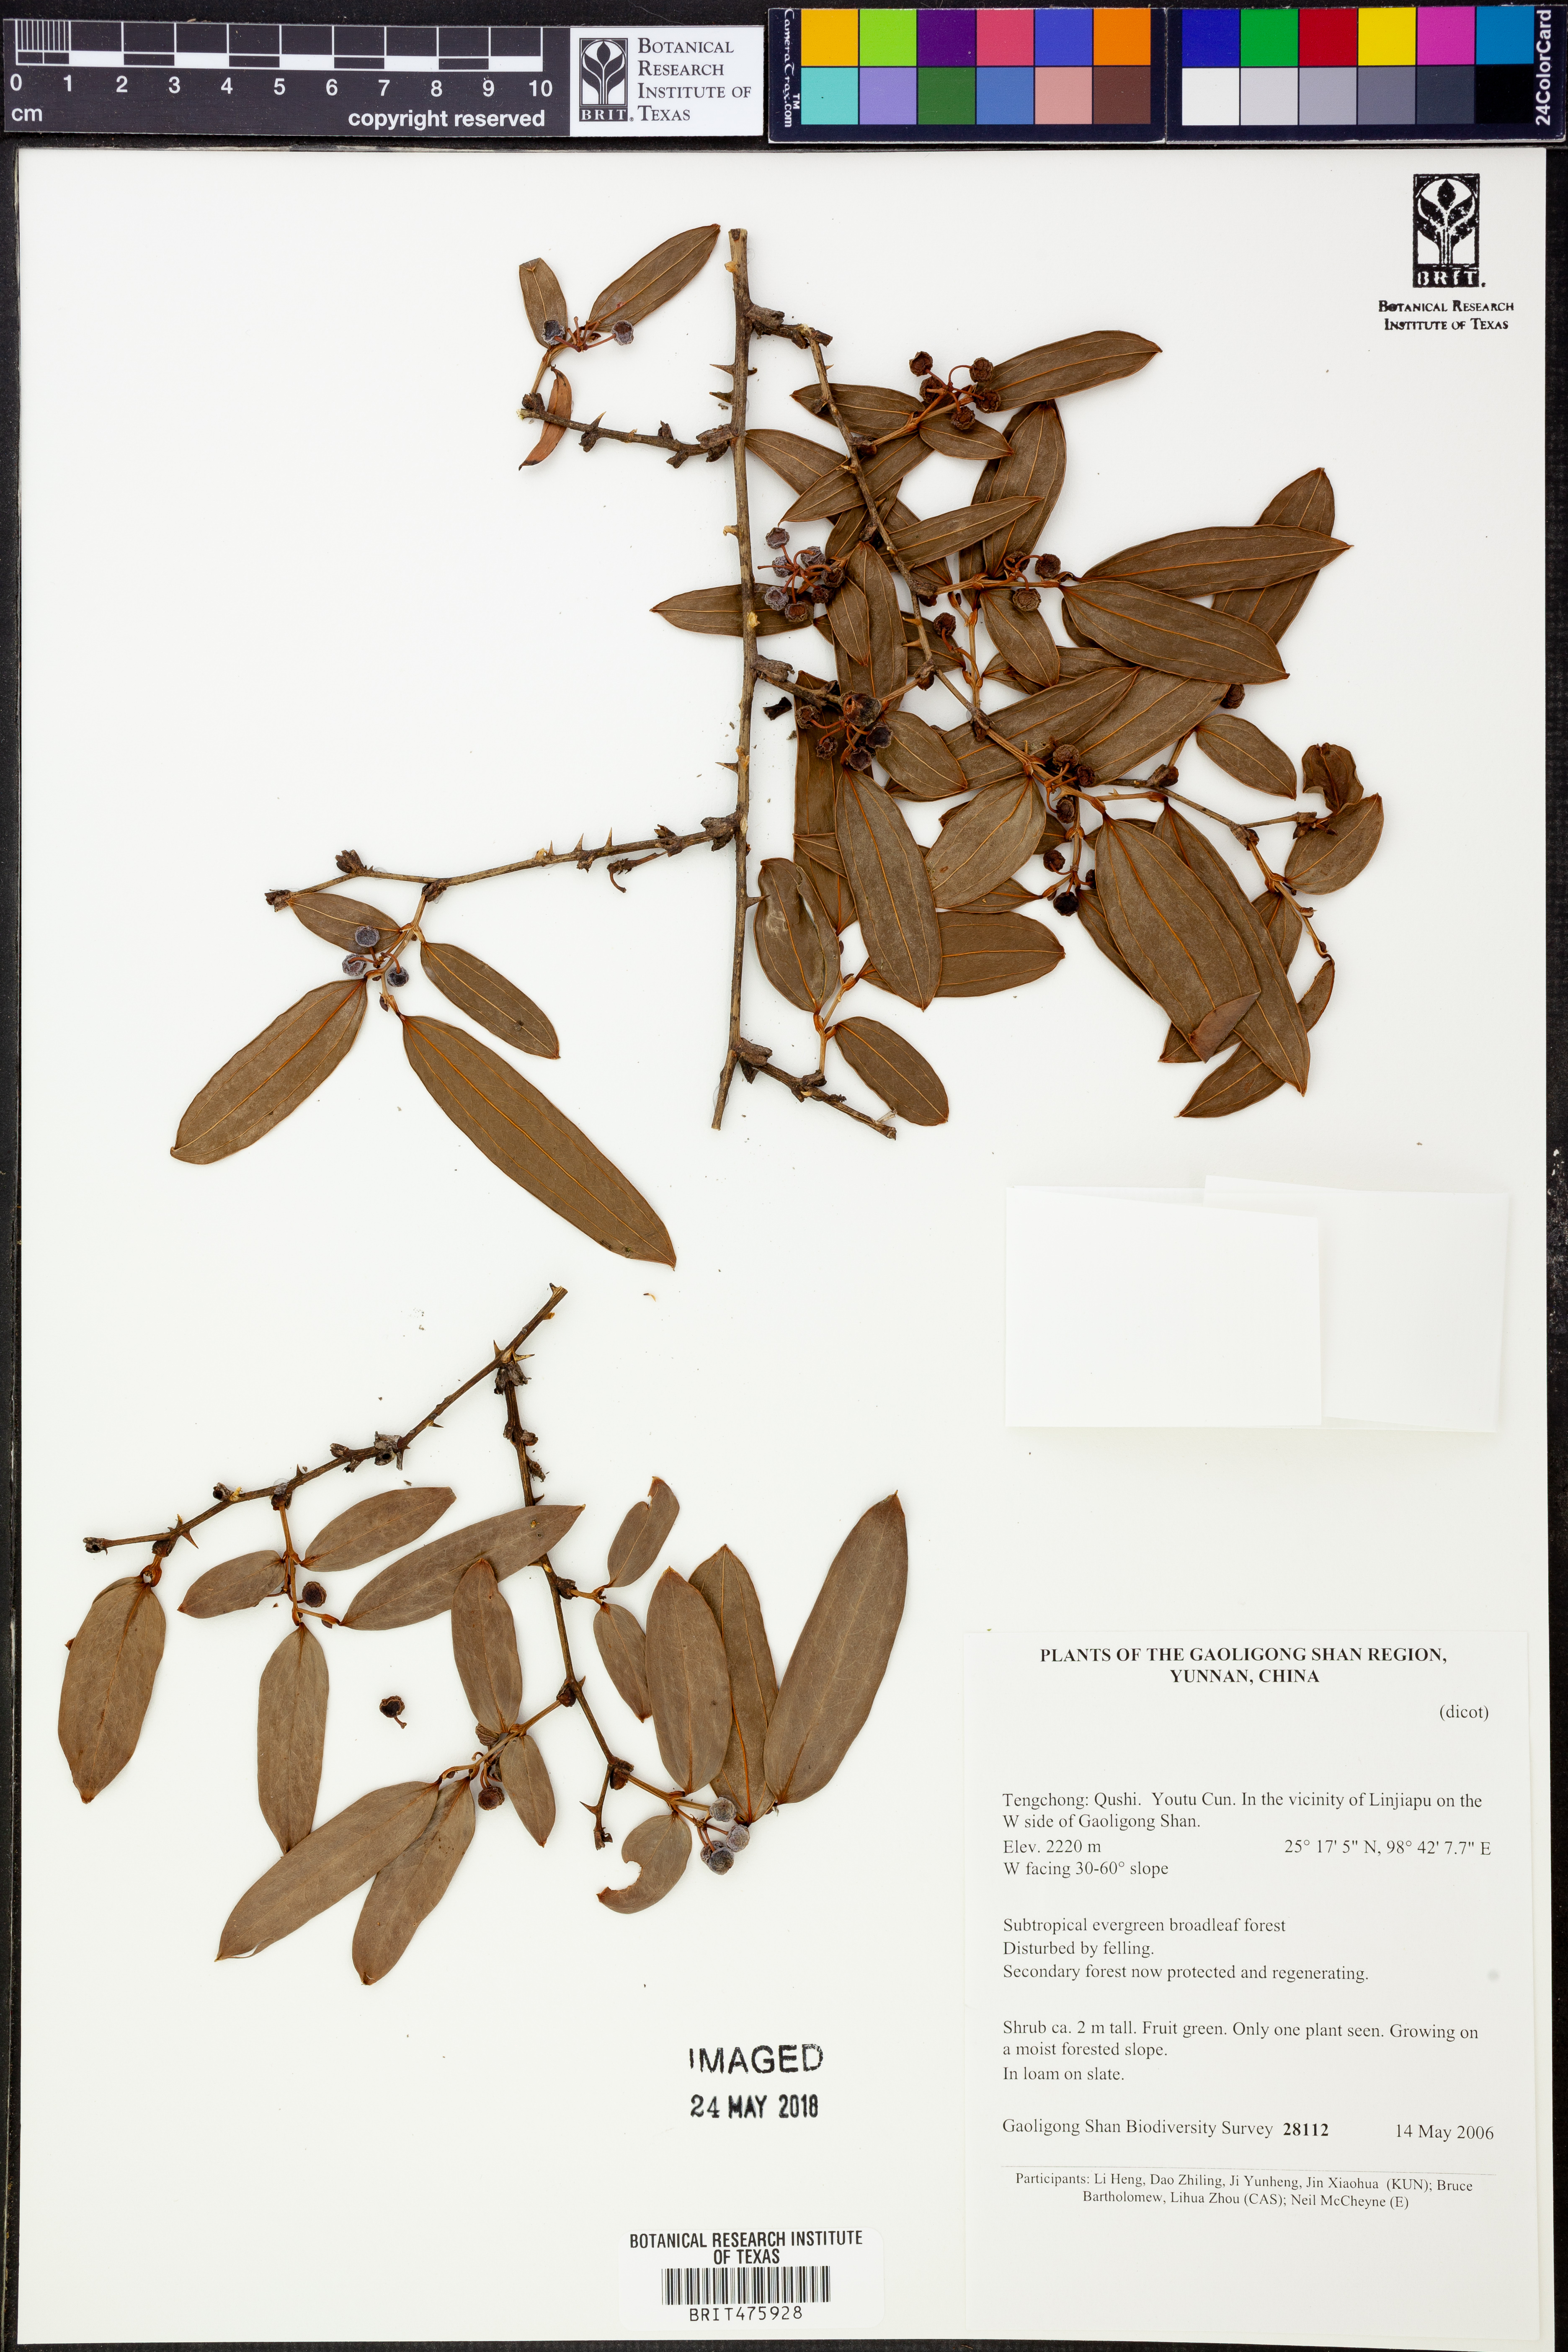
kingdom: Plantae
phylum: Tracheophyta
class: Liliopsida
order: Liliales
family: Smilacaceae
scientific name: Smilacaceae
